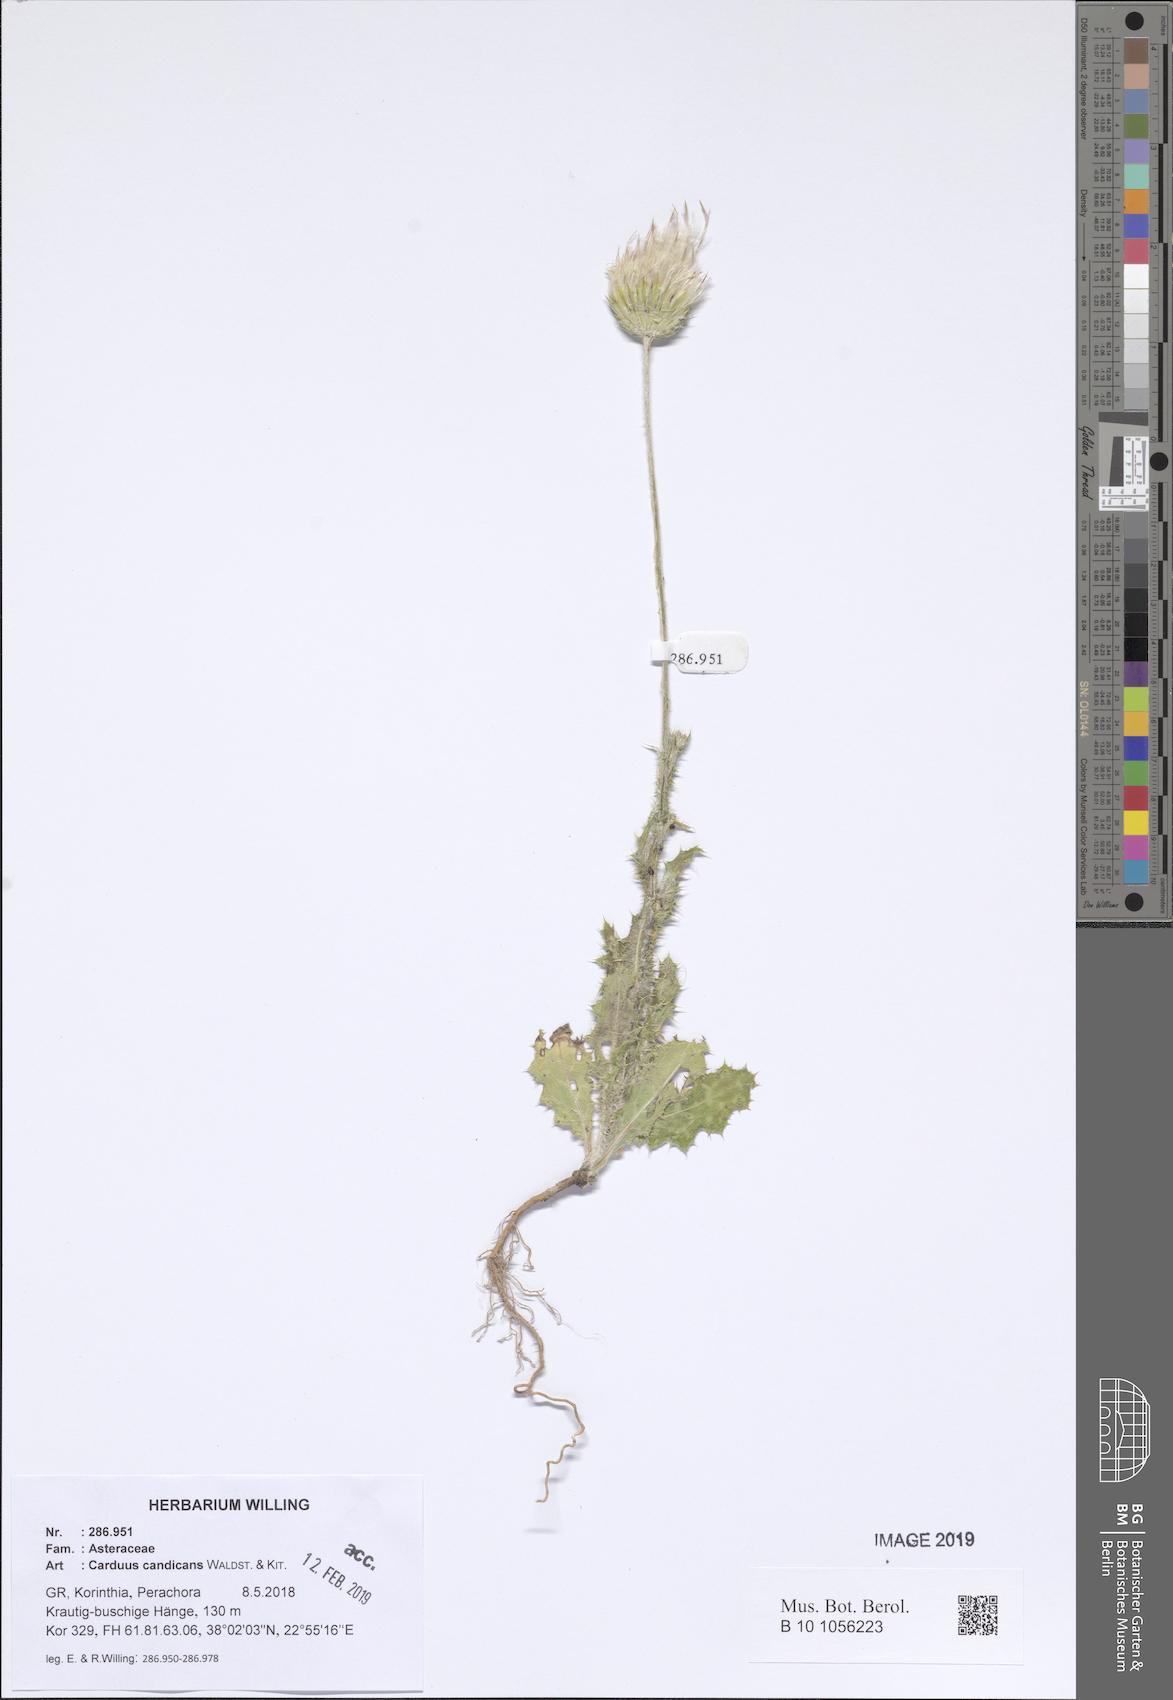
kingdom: Plantae
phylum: Tracheophyta
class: Magnoliopsida
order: Asterales
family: Asteraceae
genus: Carduus
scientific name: Carduus candicans
